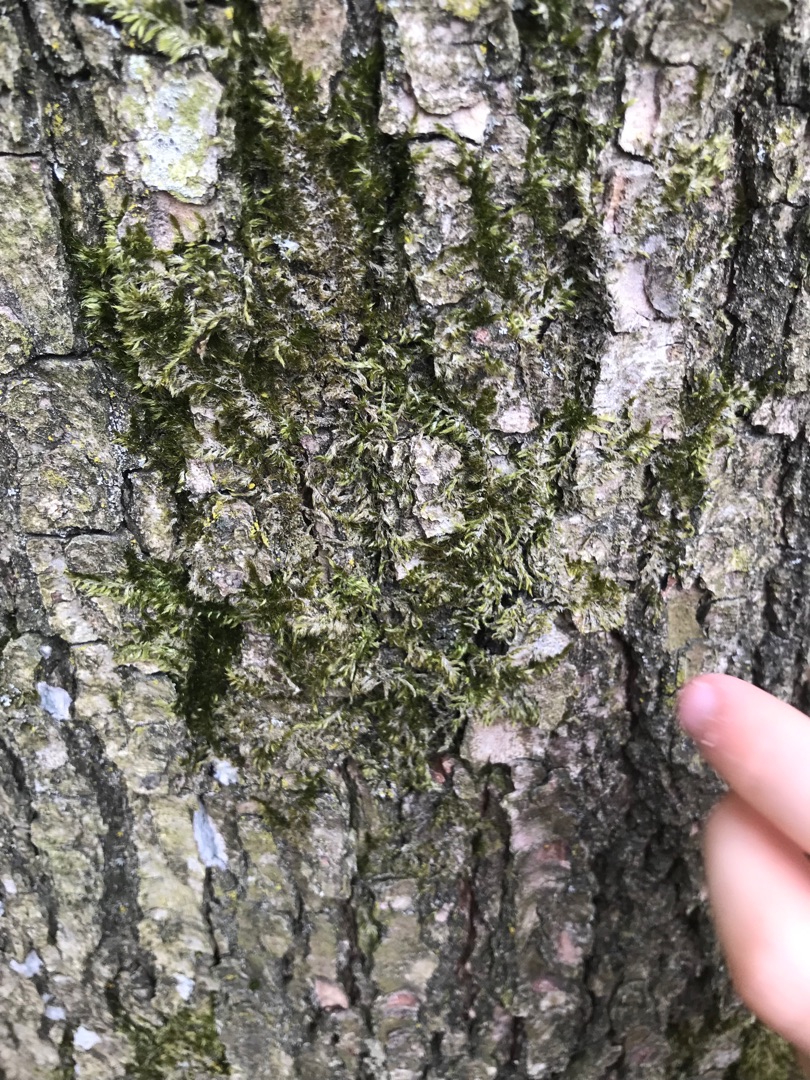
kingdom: Plantae
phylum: Bryophyta
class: Bryopsida
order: Hypnales
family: Hypnaceae
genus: Hypnum
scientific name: Hypnum
